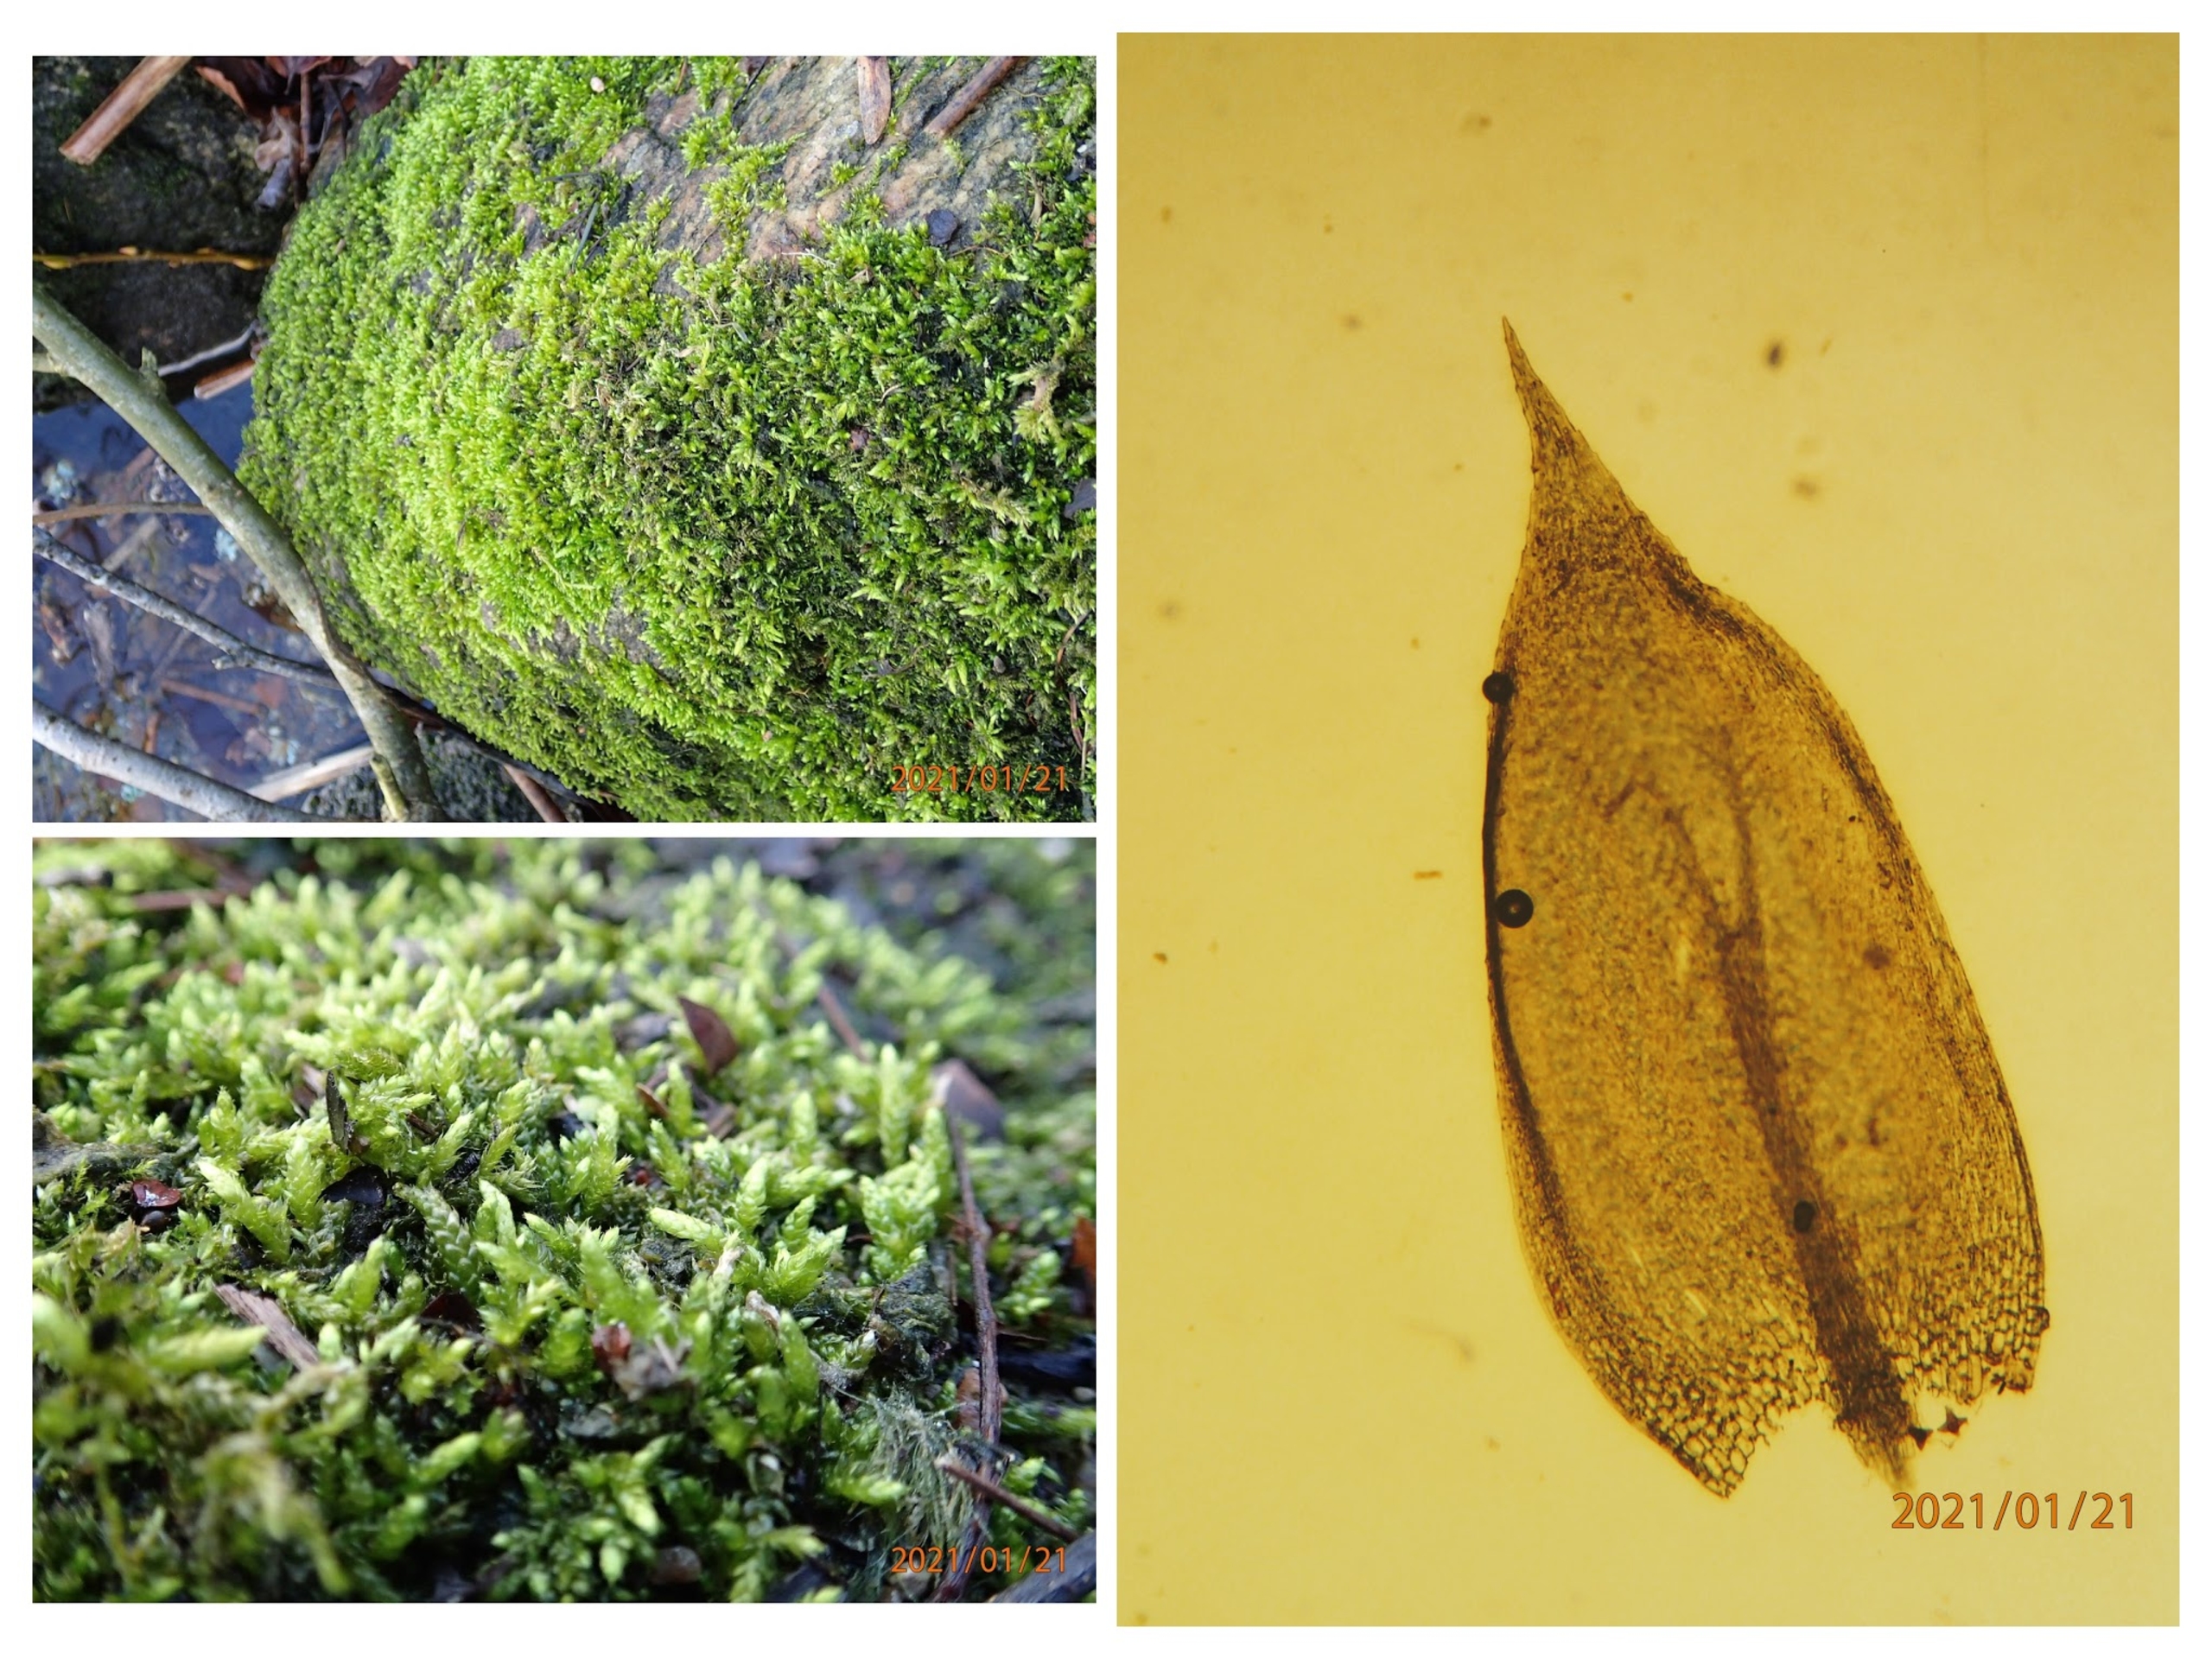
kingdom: Plantae
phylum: Bryophyta
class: Bryopsida
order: Hypnales
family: Brachytheciaceae
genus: Cirriphyllum
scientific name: Cirriphyllum crassinervium
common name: Tæt penselmos
